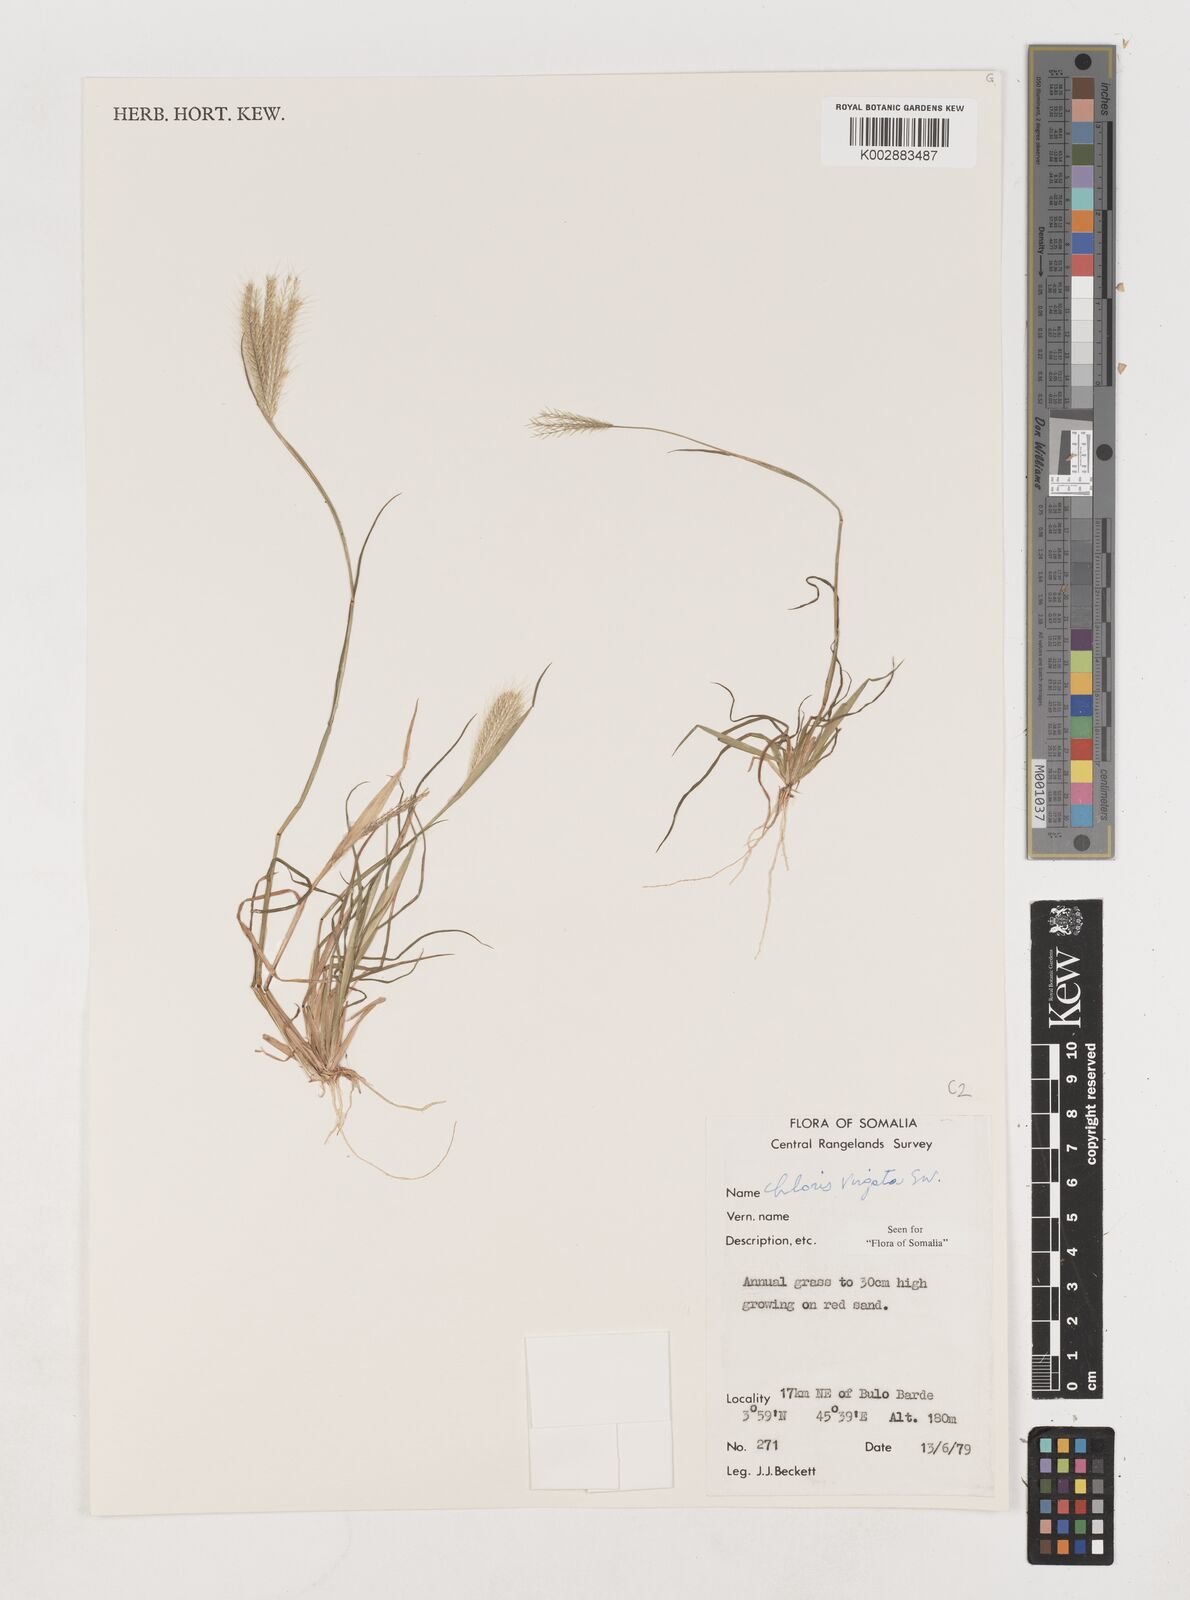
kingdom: Plantae
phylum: Tracheophyta
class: Liliopsida
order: Poales
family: Poaceae
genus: Chloris
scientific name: Chloris virgata
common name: Feathery rhodes-grass
